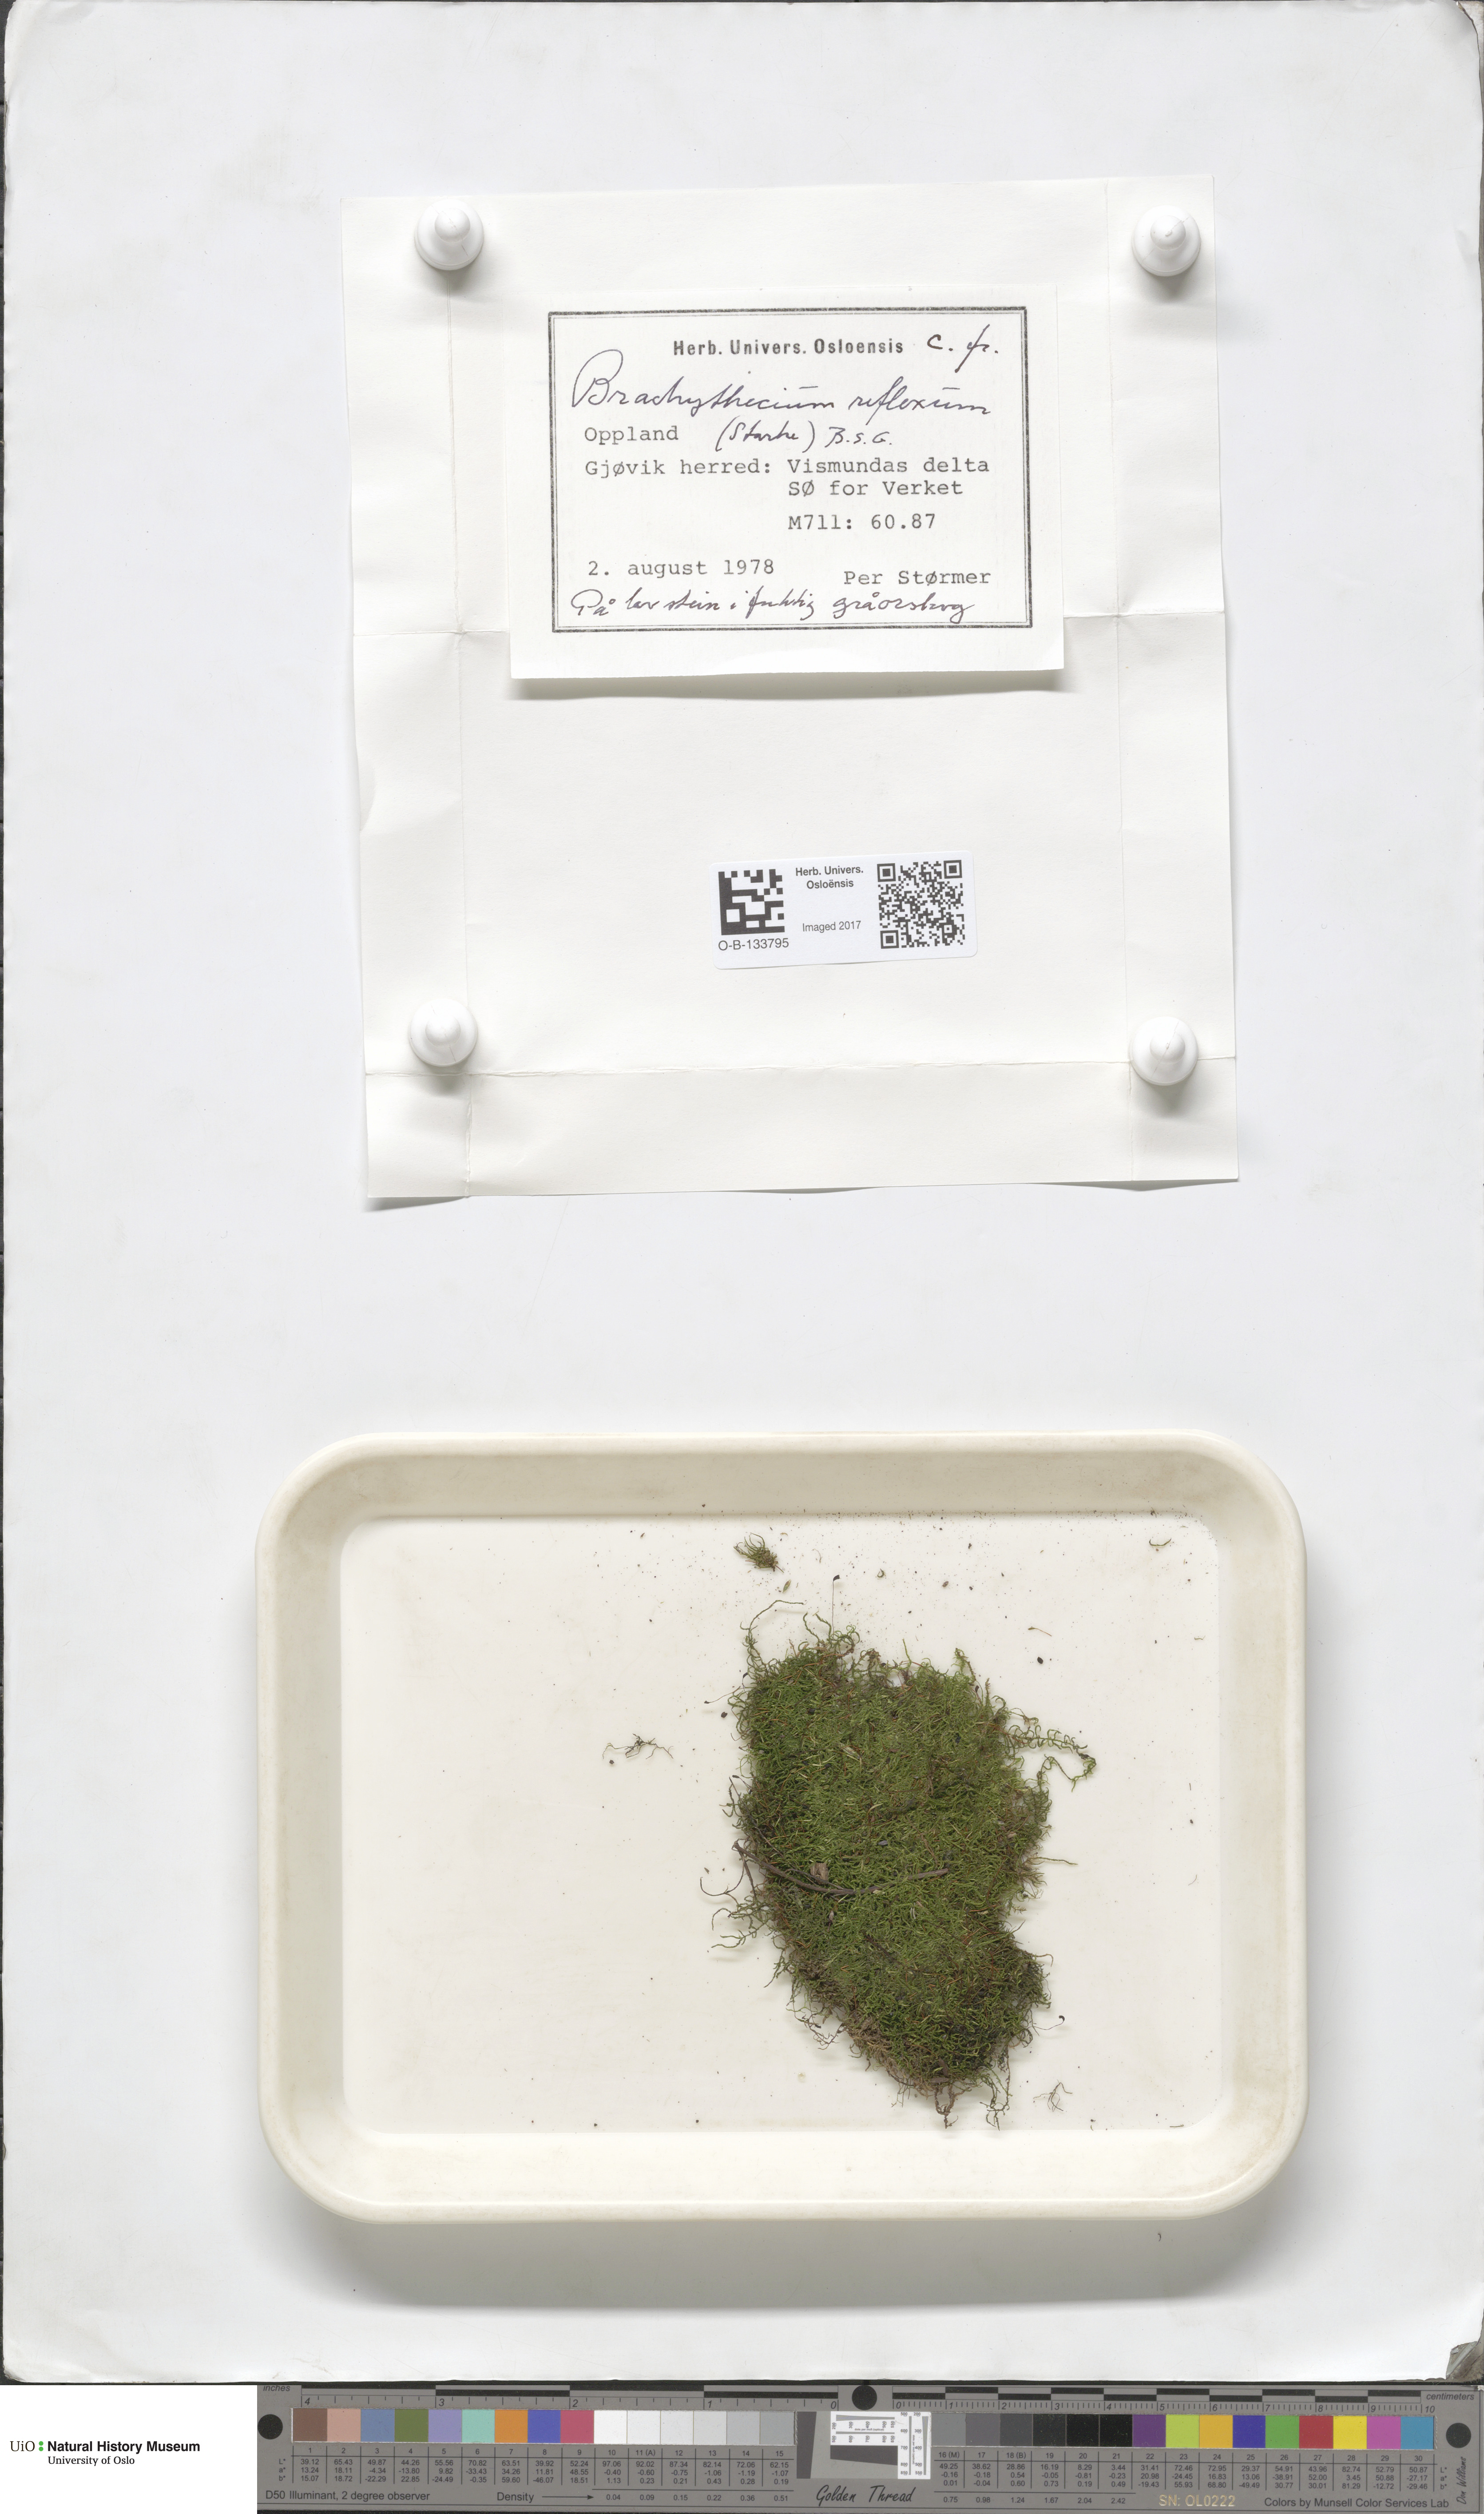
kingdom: Plantae
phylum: Bryophyta
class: Bryopsida
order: Hypnales
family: Brachytheciaceae
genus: Sciuro-hypnum
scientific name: Sciuro-hypnum reflexum
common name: Reflexed feather-moss
